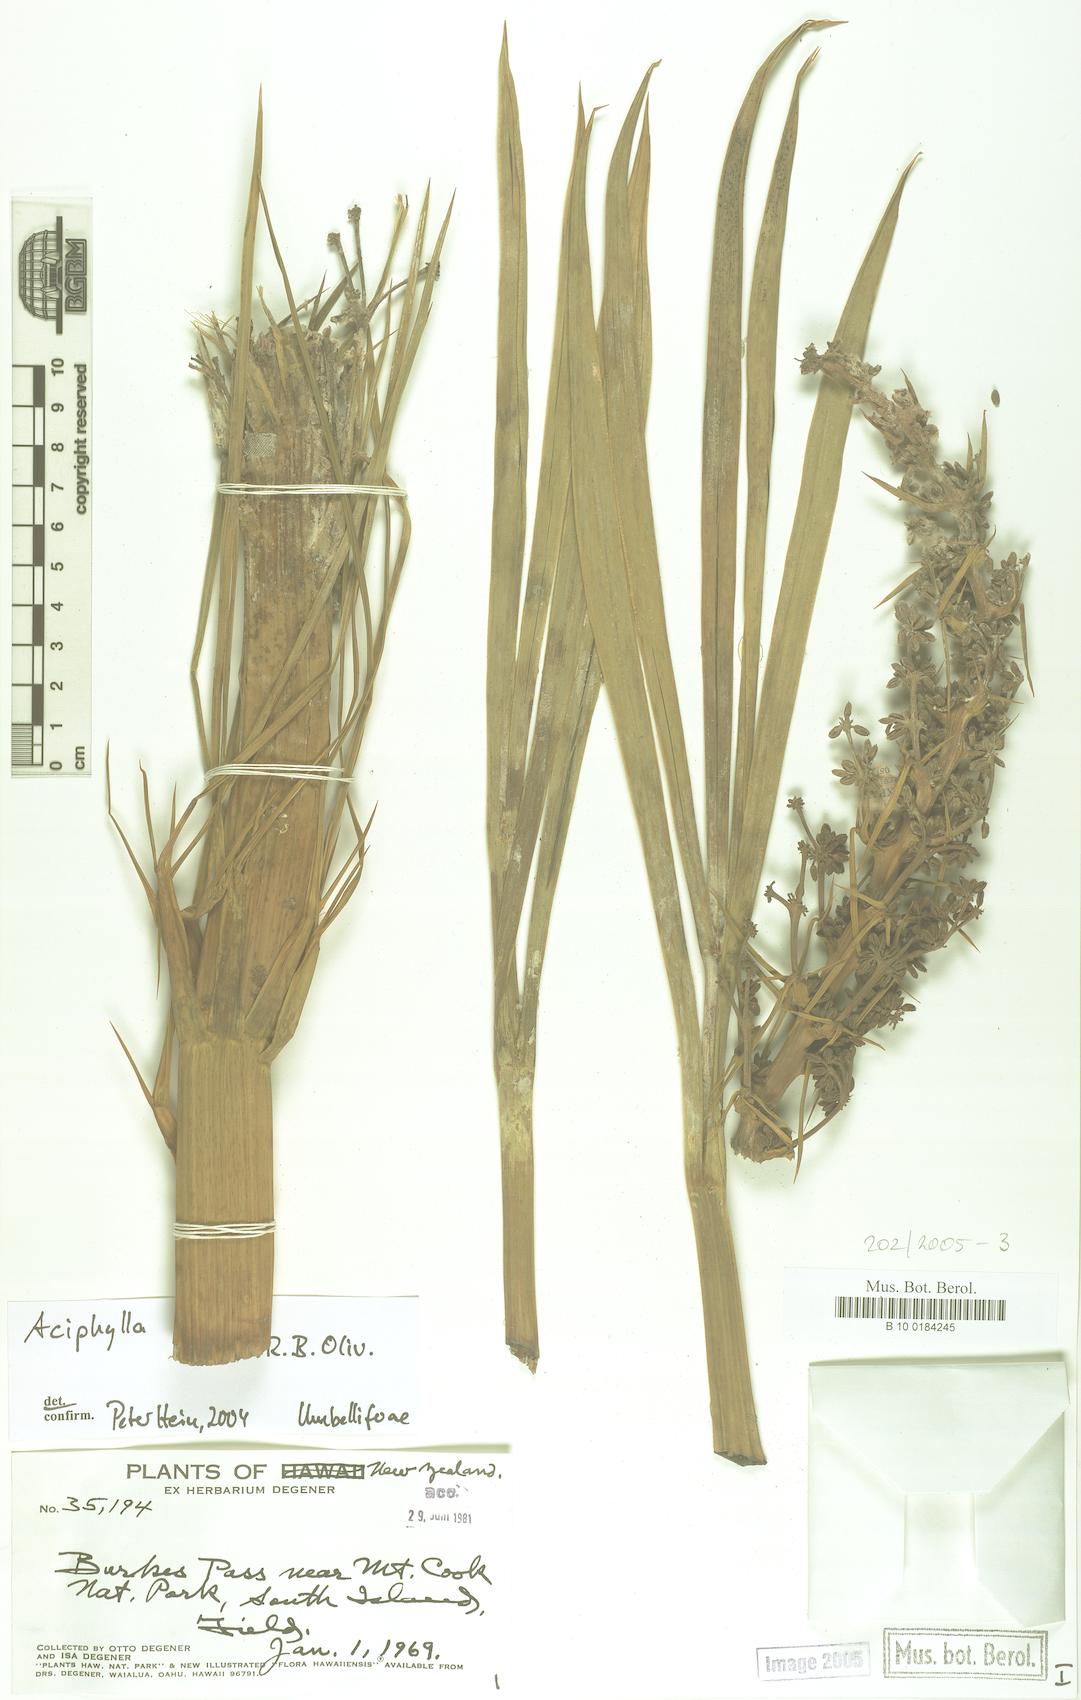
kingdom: Plantae
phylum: Tracheophyta
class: Magnoliopsida
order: Apiales
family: Apiaceae
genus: Aciphylla
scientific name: Aciphylla horrida
